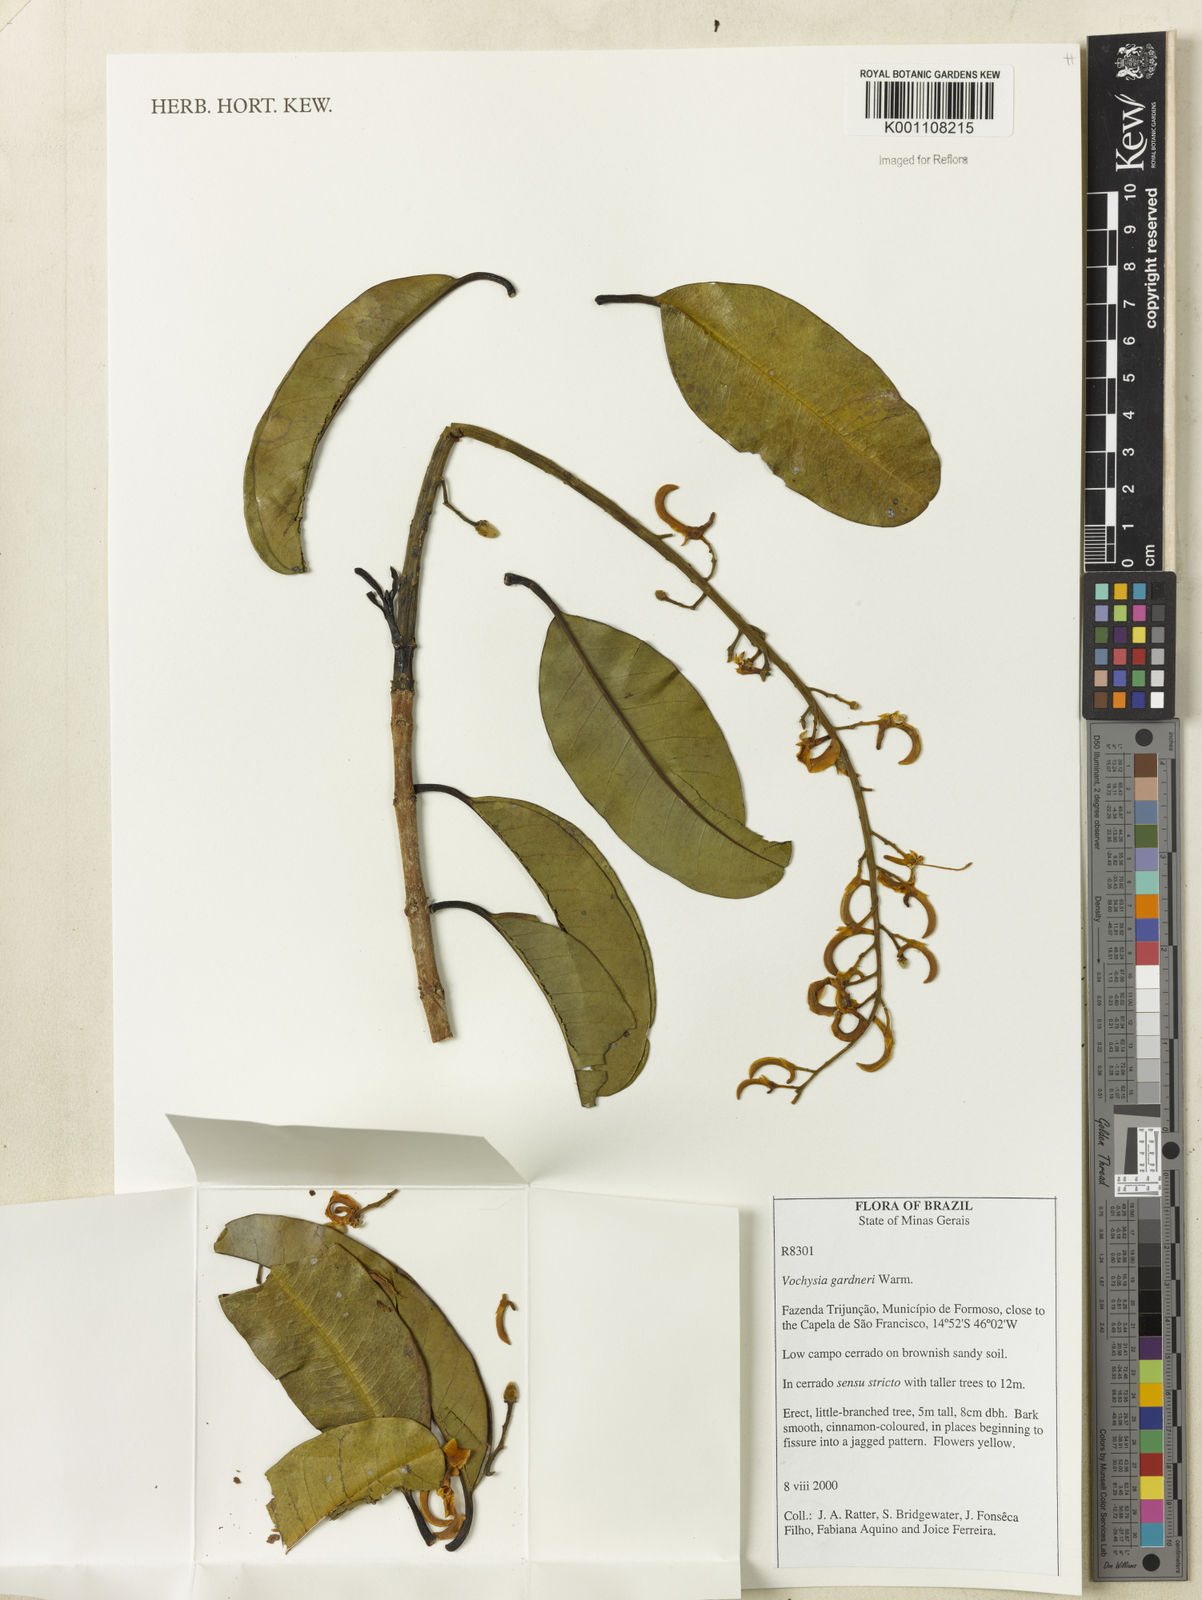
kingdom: Plantae
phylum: Tracheophyta
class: Magnoliopsida
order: Myrtales
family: Vochysiaceae
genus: Vochysia
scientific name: Vochysia gardneri
